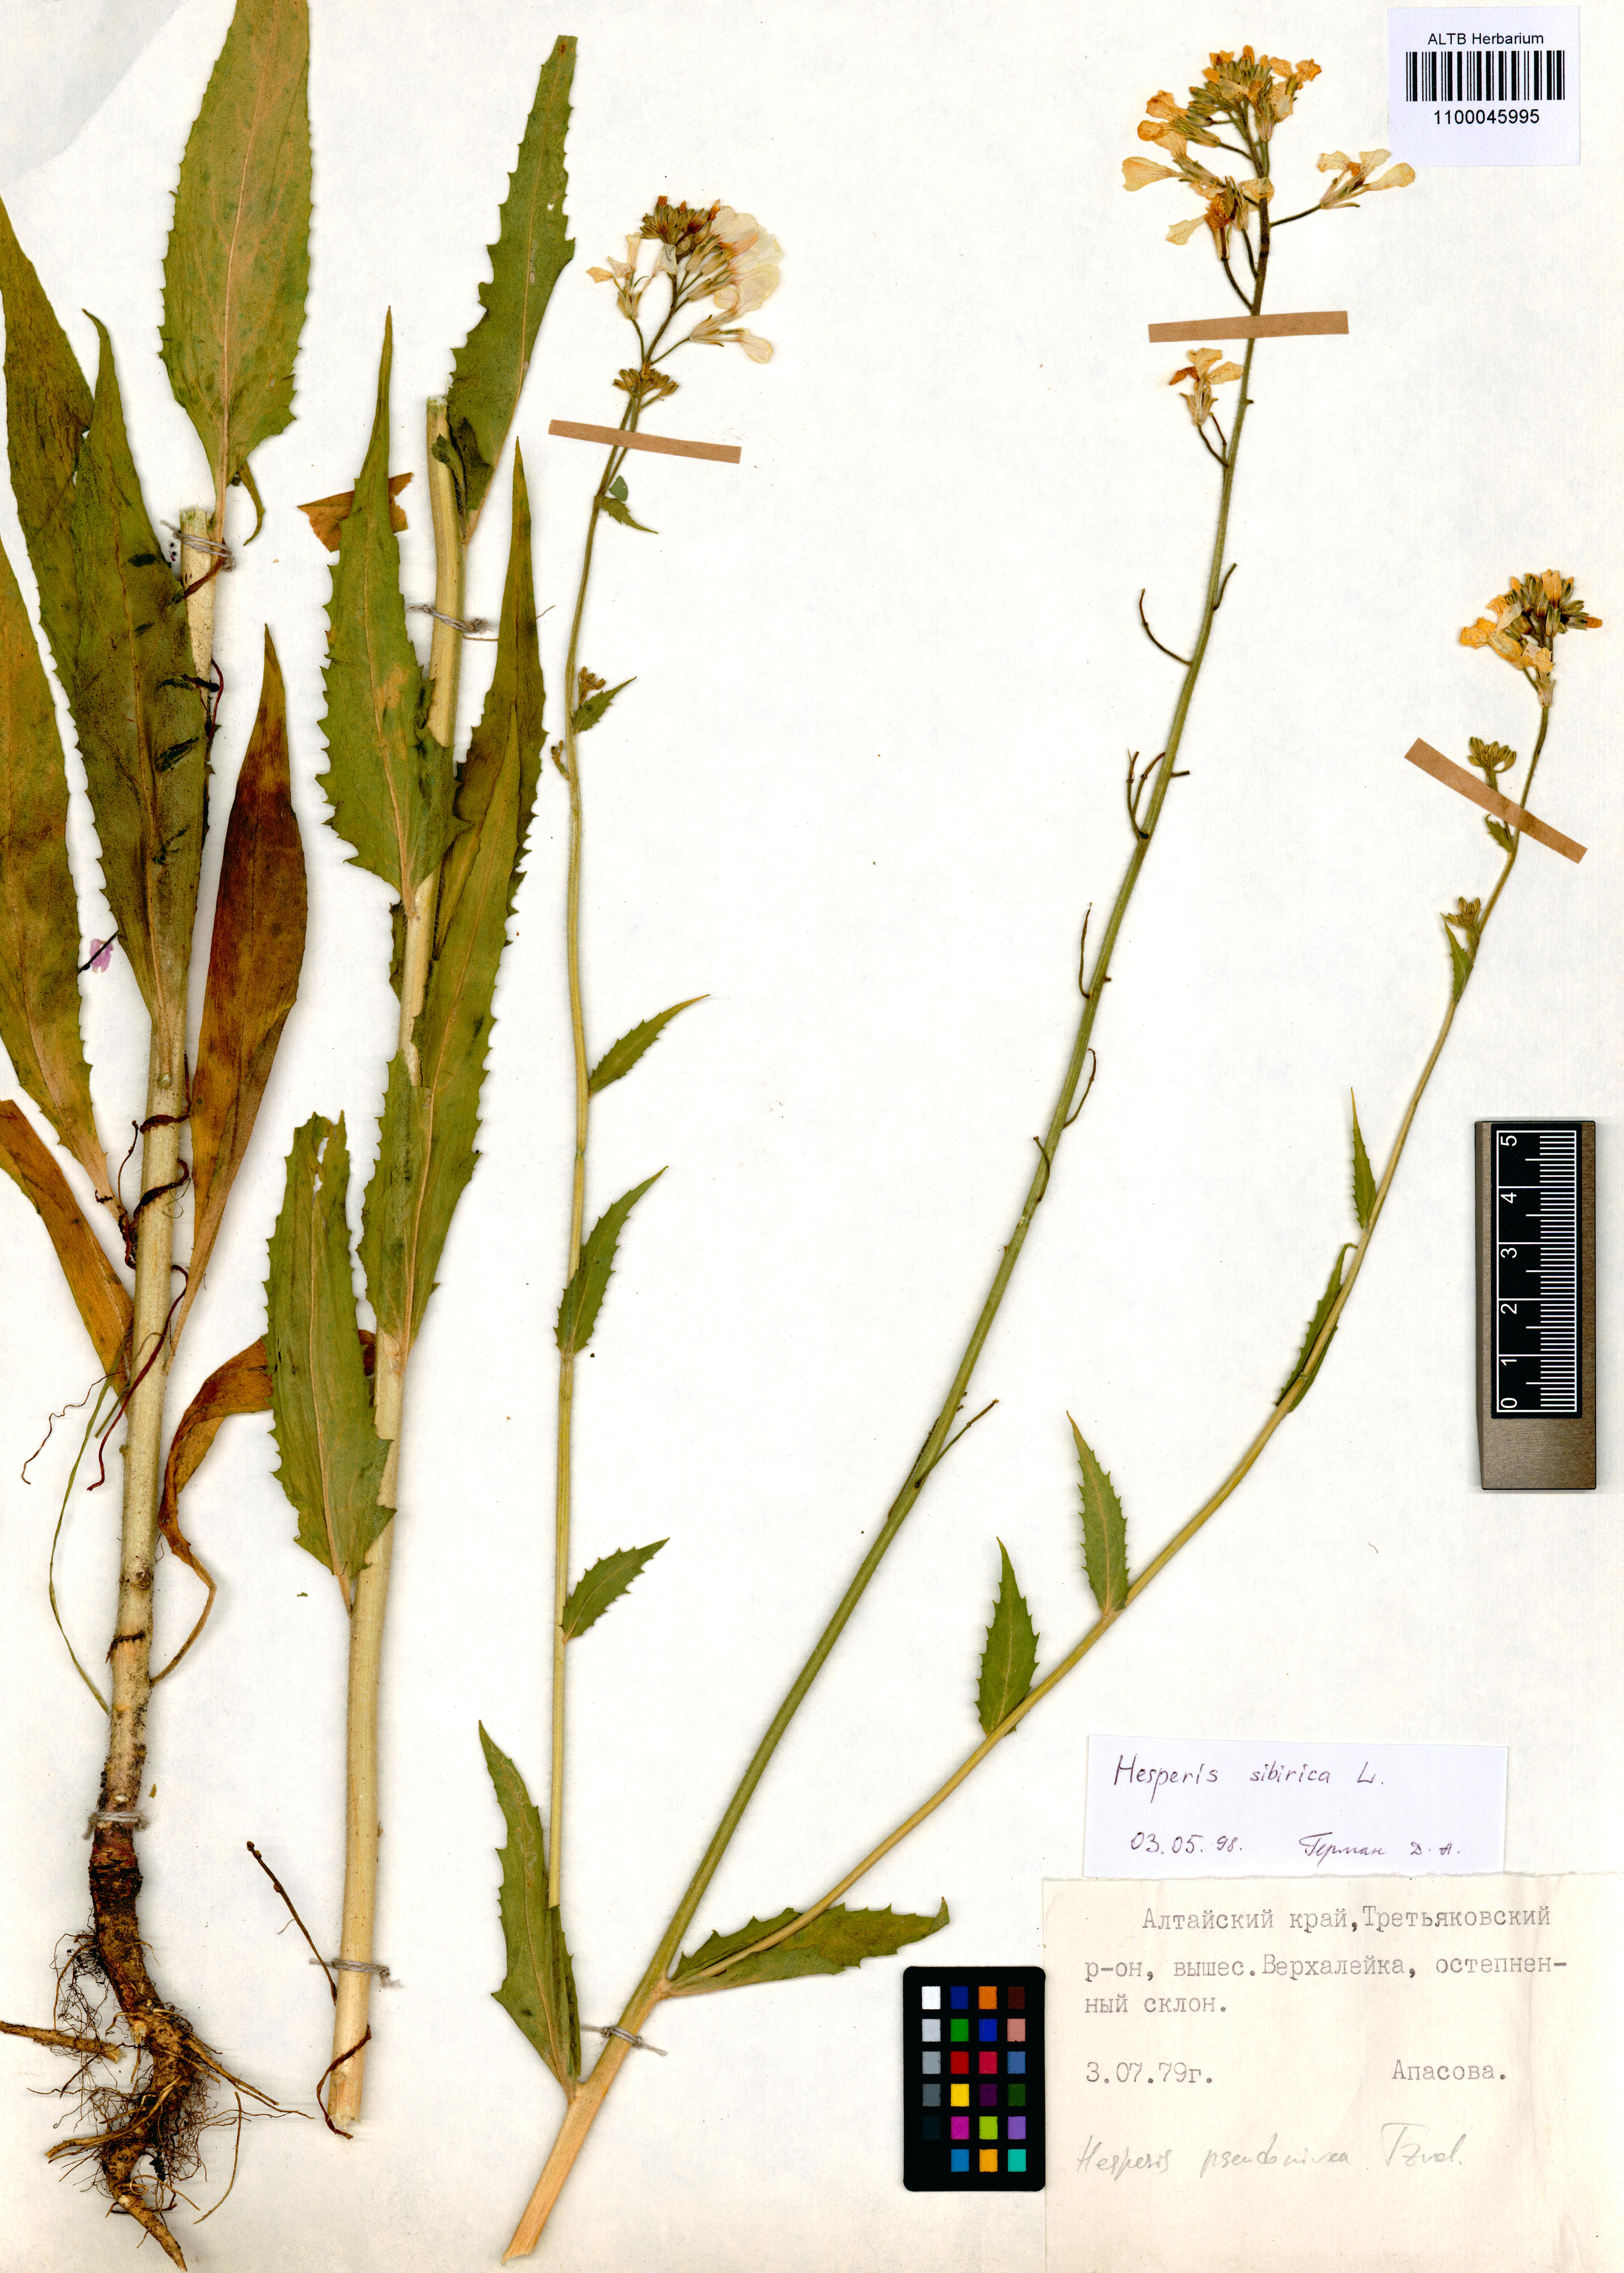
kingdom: Plantae
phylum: Tracheophyta
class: Magnoliopsida
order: Brassicales
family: Brassicaceae
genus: Hesperis
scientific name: Hesperis sibirica
